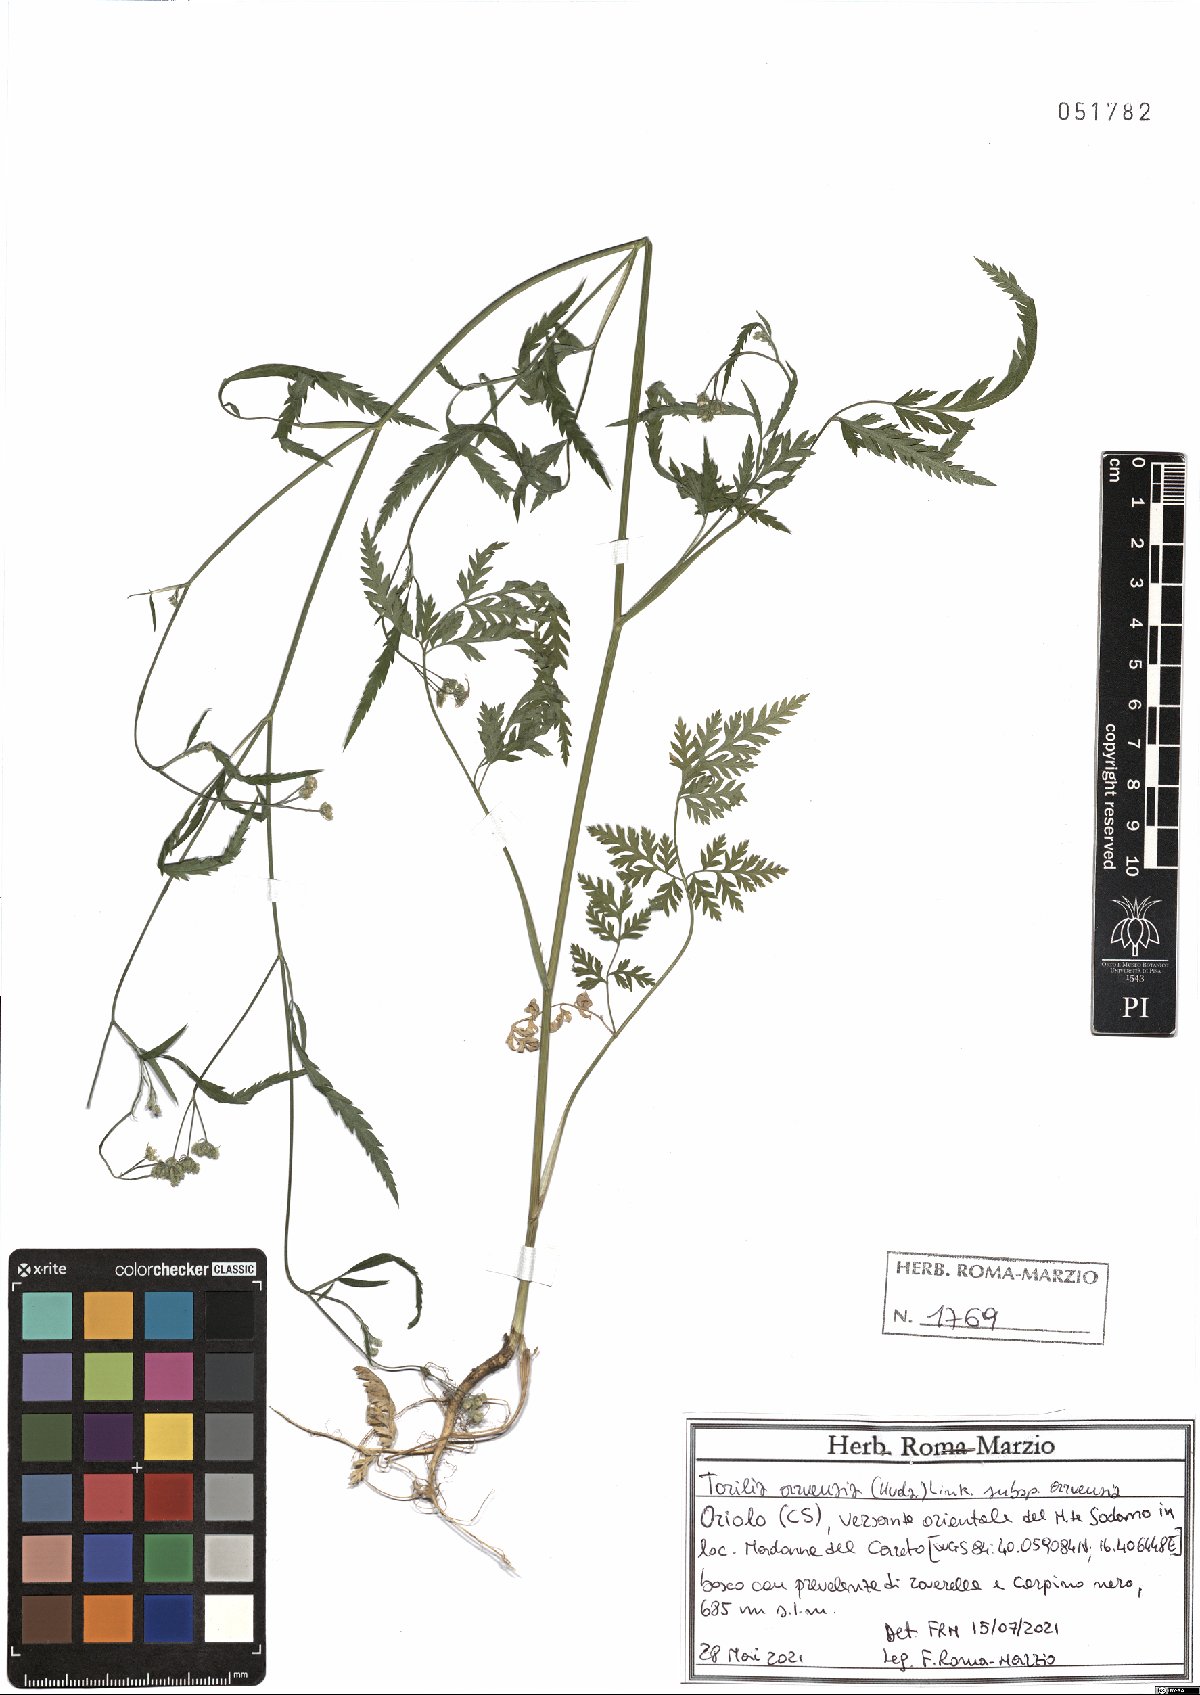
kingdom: Plantae
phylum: Tracheophyta
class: Magnoliopsida
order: Apiales
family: Apiaceae
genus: Torilis
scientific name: Torilis arvensis
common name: Spreading hedge-parsley
